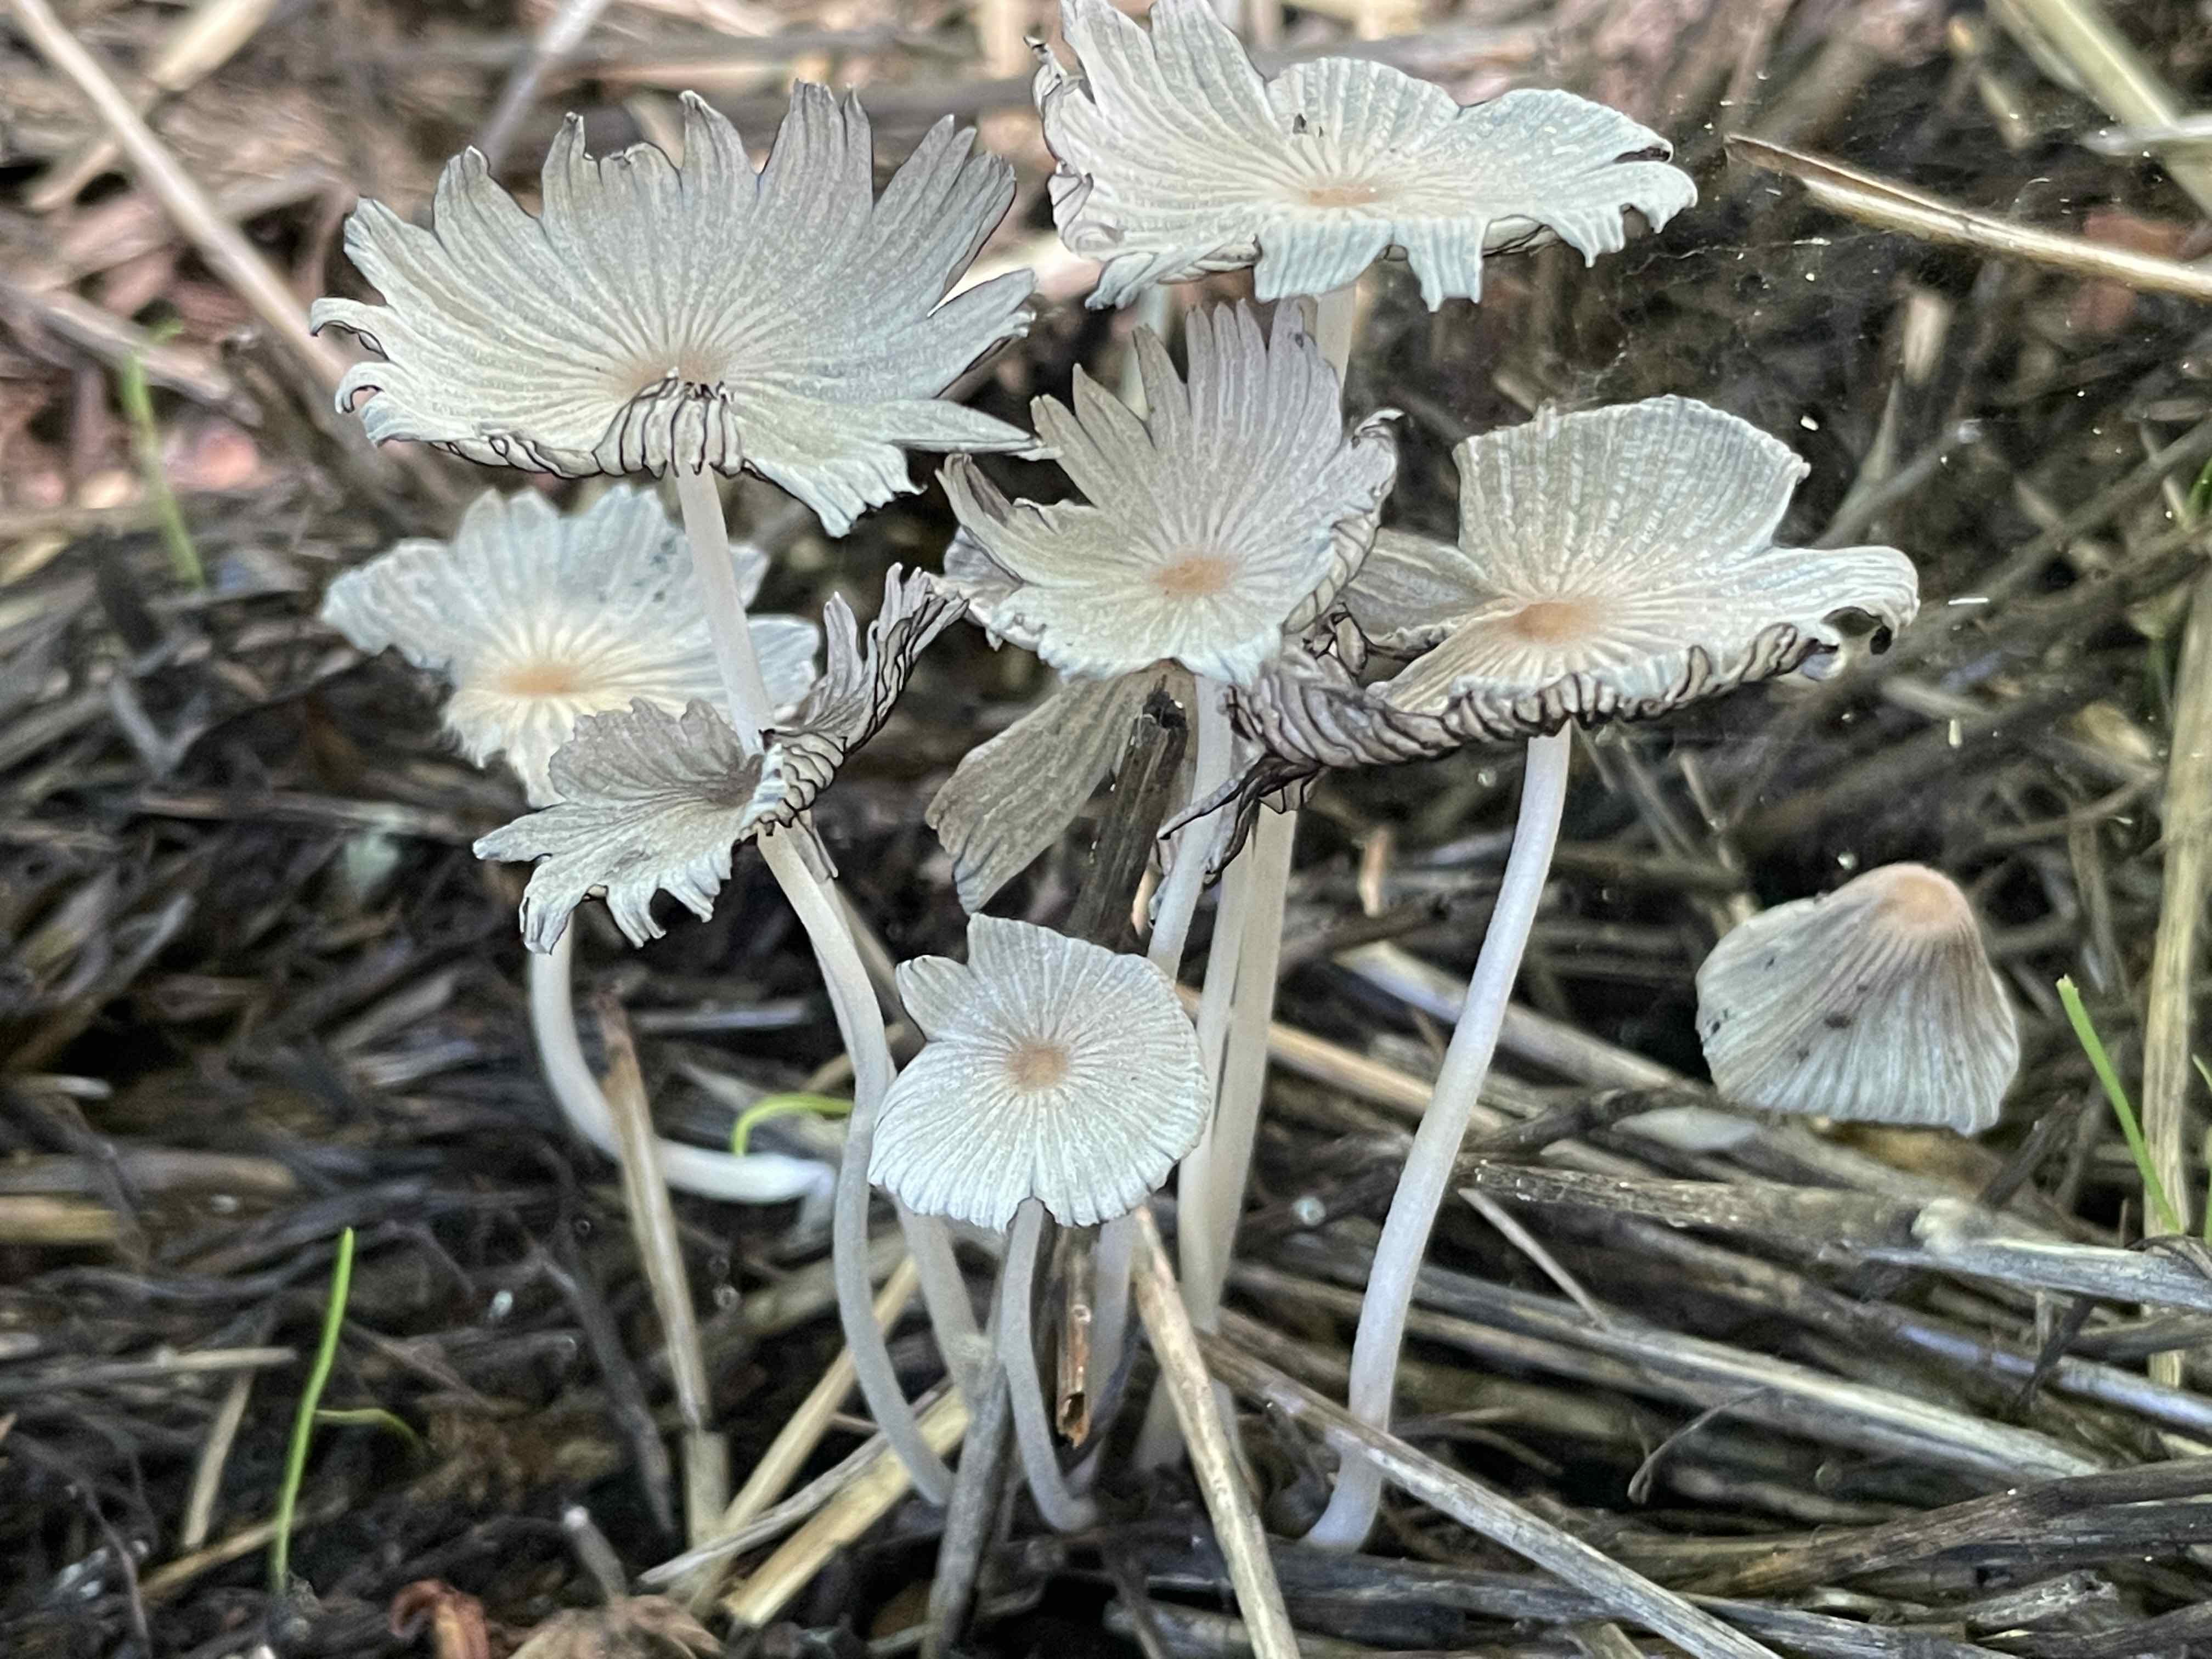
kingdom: Fungi
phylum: Basidiomycota
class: Agaricomycetes
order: Agaricales
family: Psathyrellaceae
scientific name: Psathyrellaceae
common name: mørkhatfamilien
